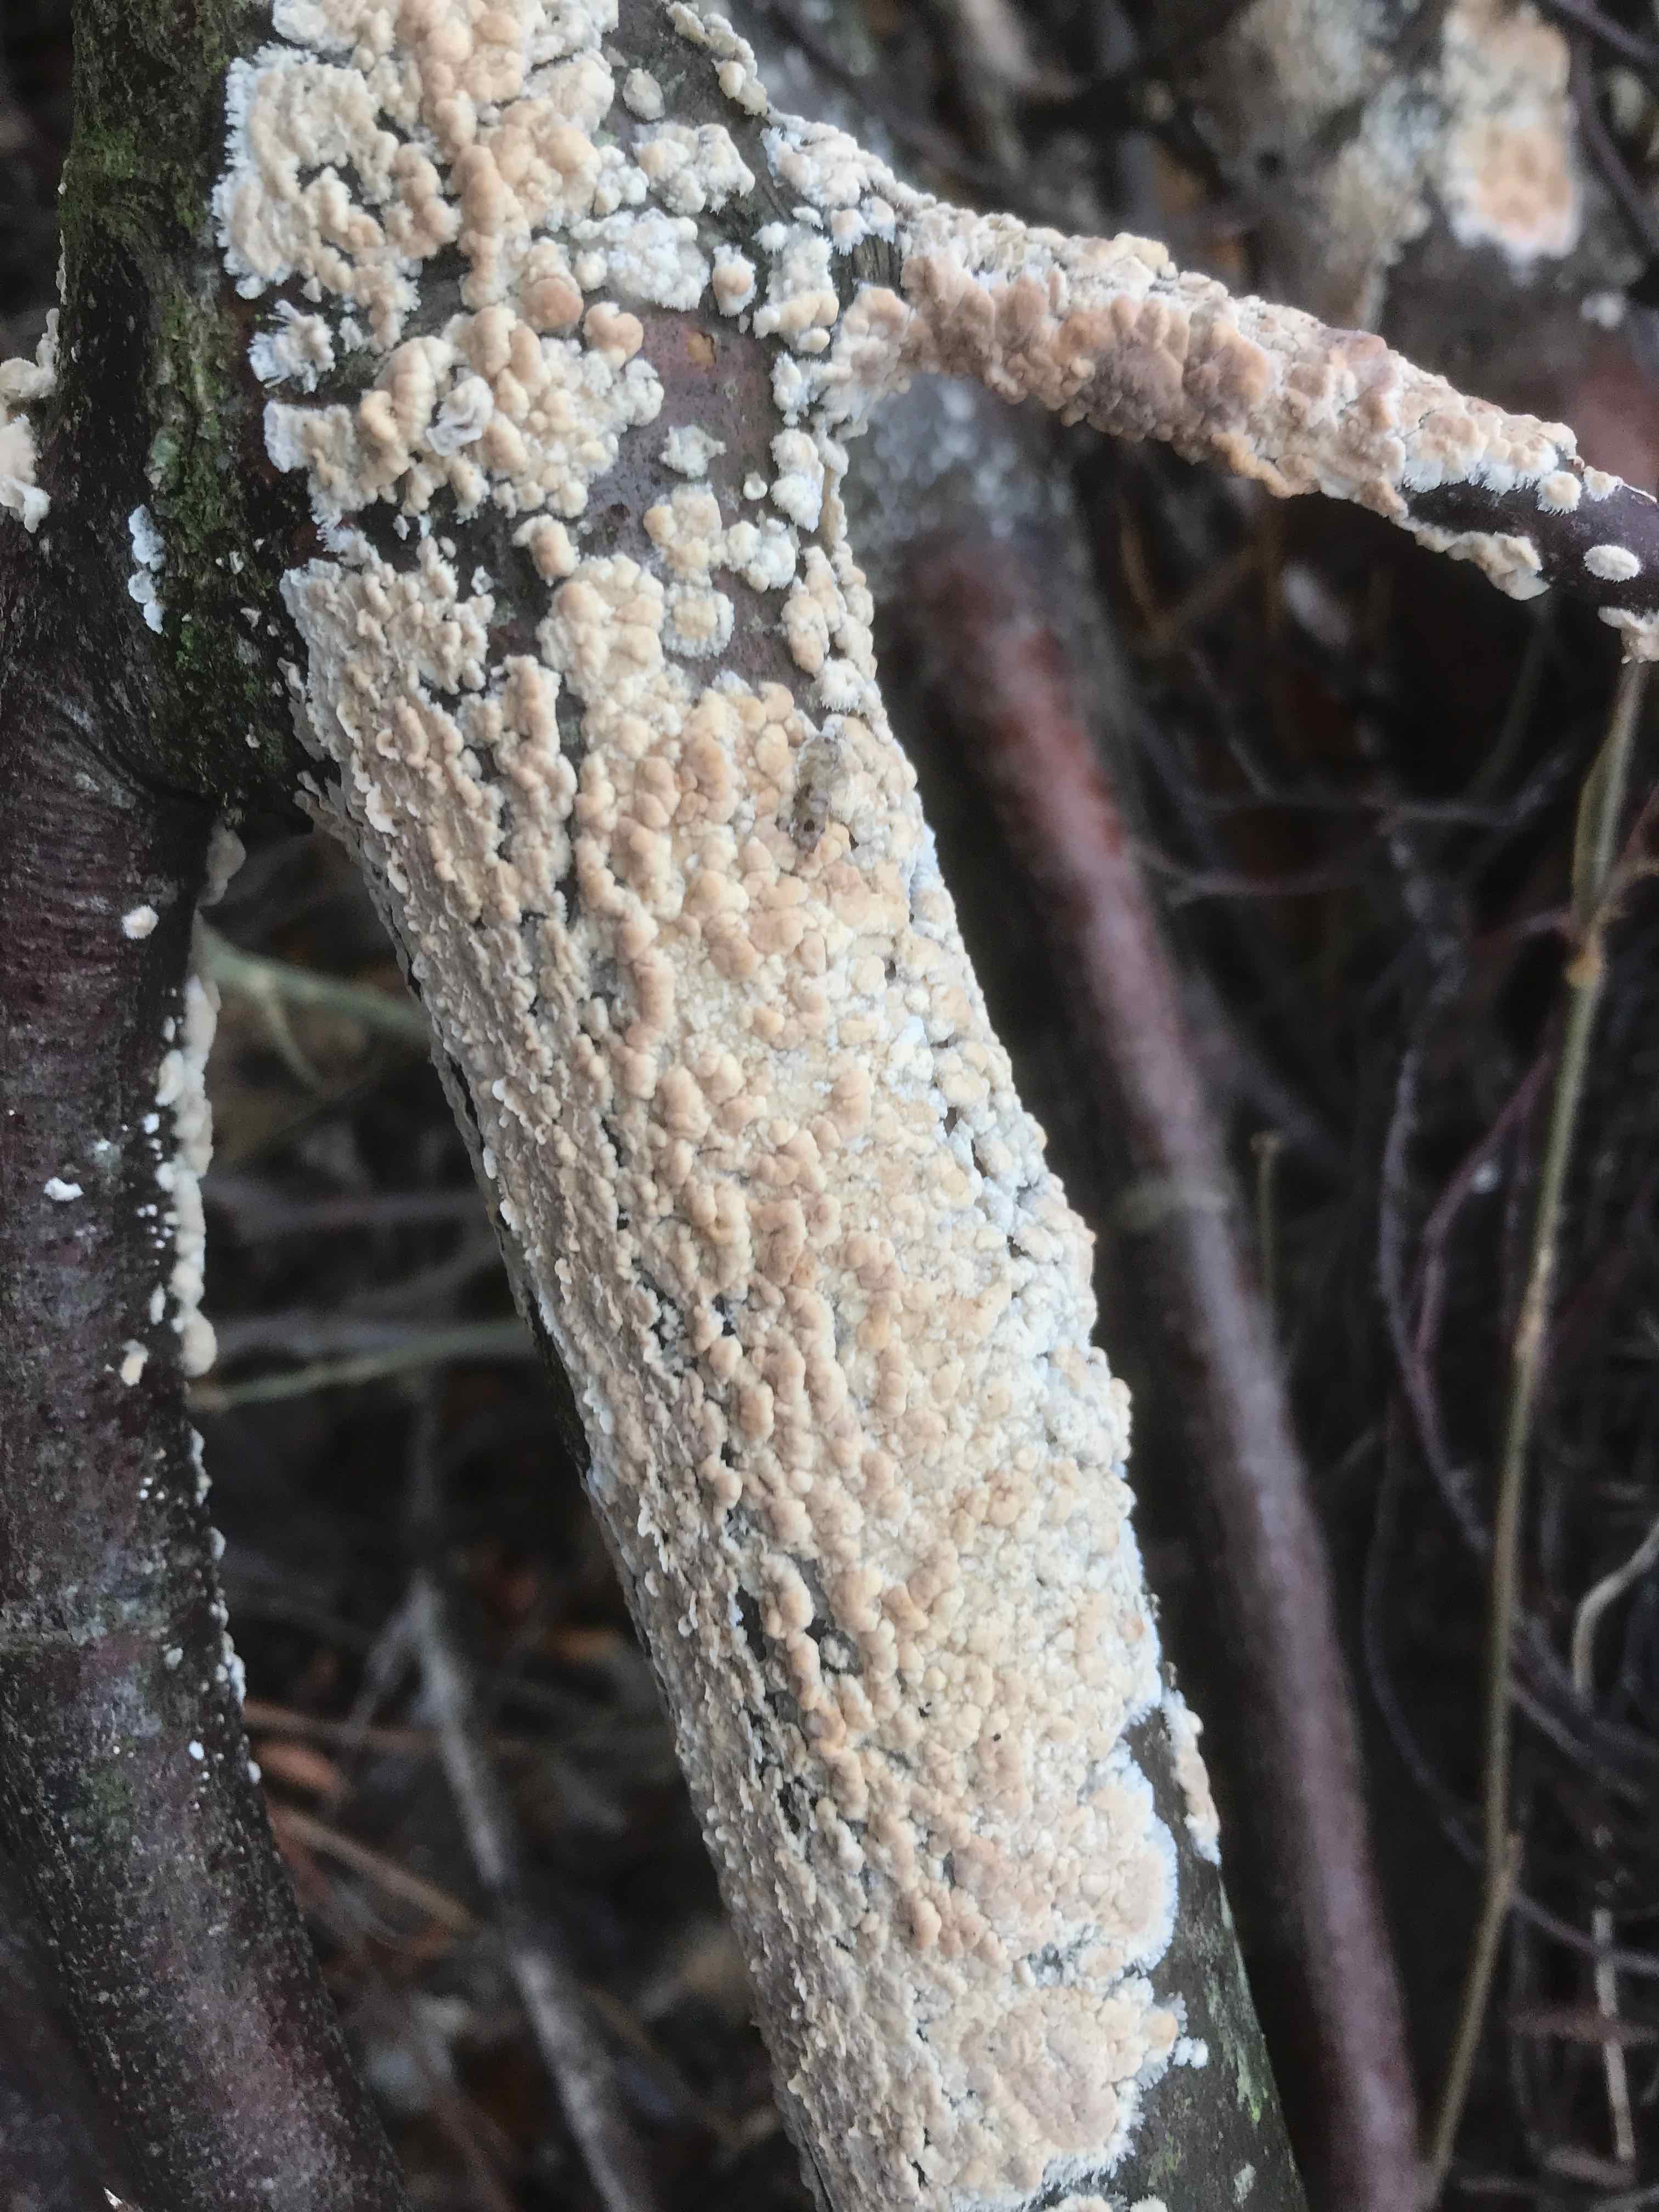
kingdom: Fungi
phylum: Basidiomycota
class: Agaricomycetes
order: Agaricales
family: Physalacriaceae
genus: Cylindrobasidium
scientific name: Cylindrobasidium evolvens
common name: sprækkehinde
